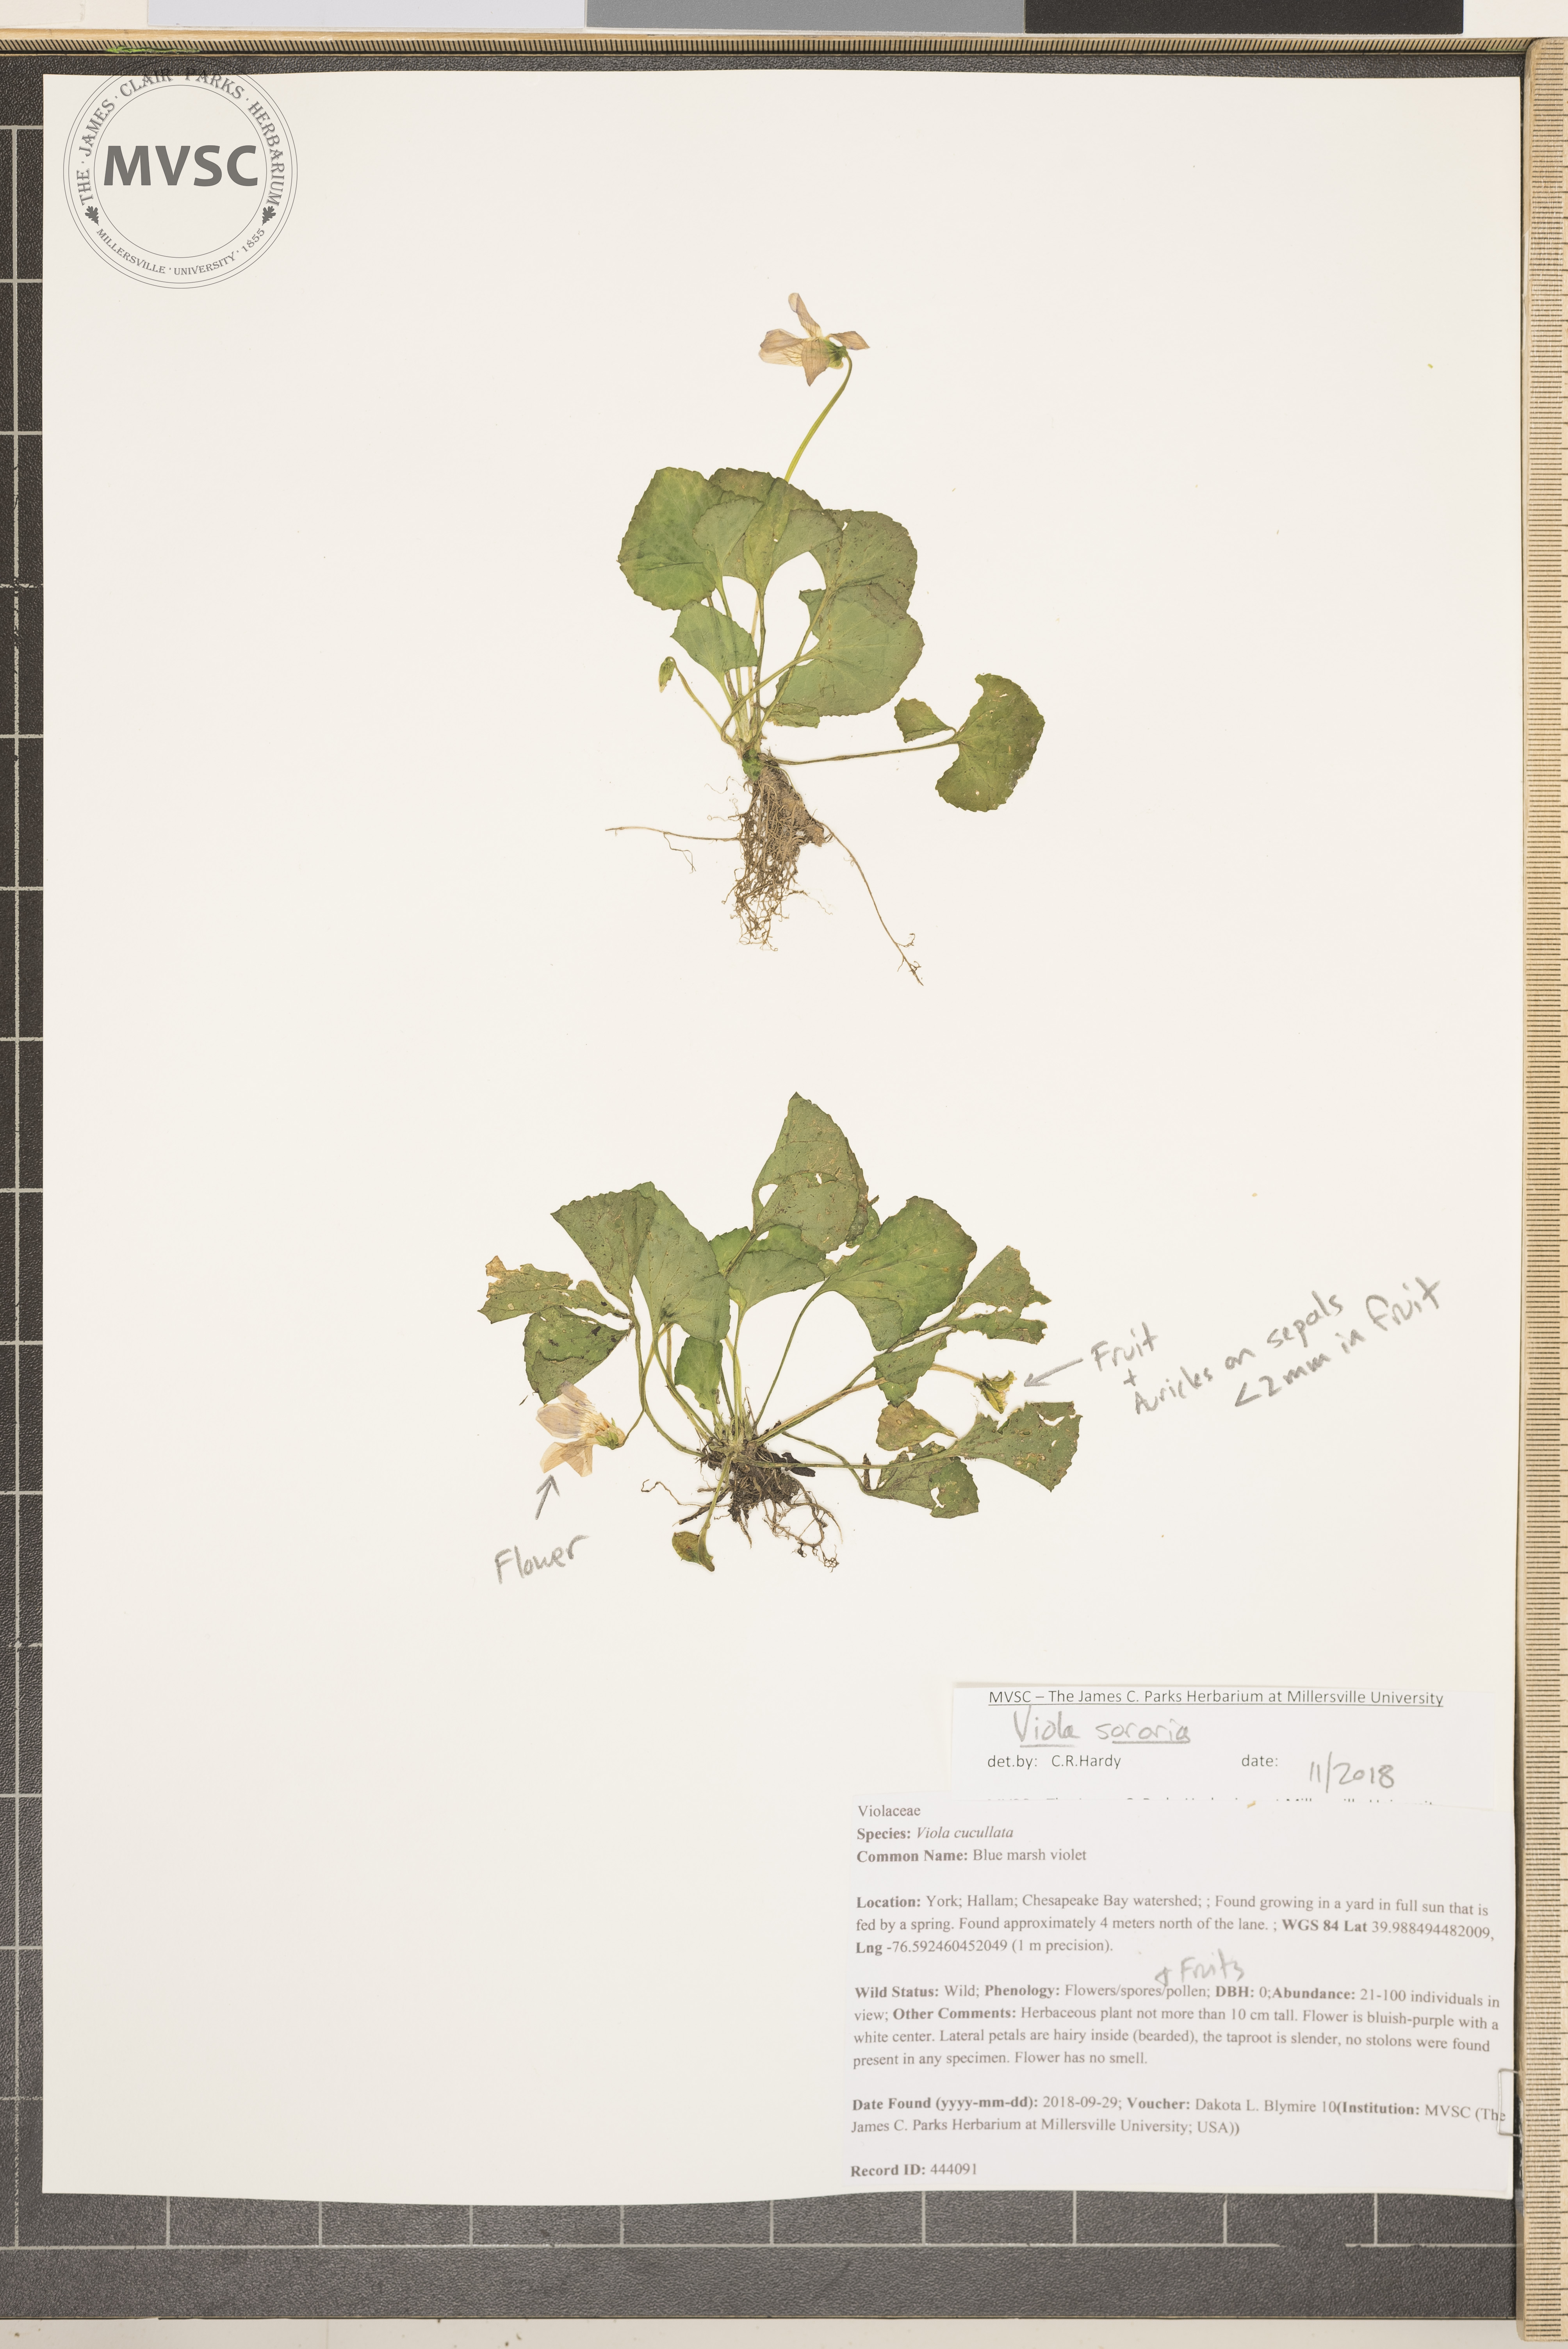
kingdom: Plantae
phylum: Tracheophyta
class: Magnoliopsida
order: Malpighiales
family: Violaceae
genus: Viola
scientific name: Viola sororia
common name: Common blue violet
